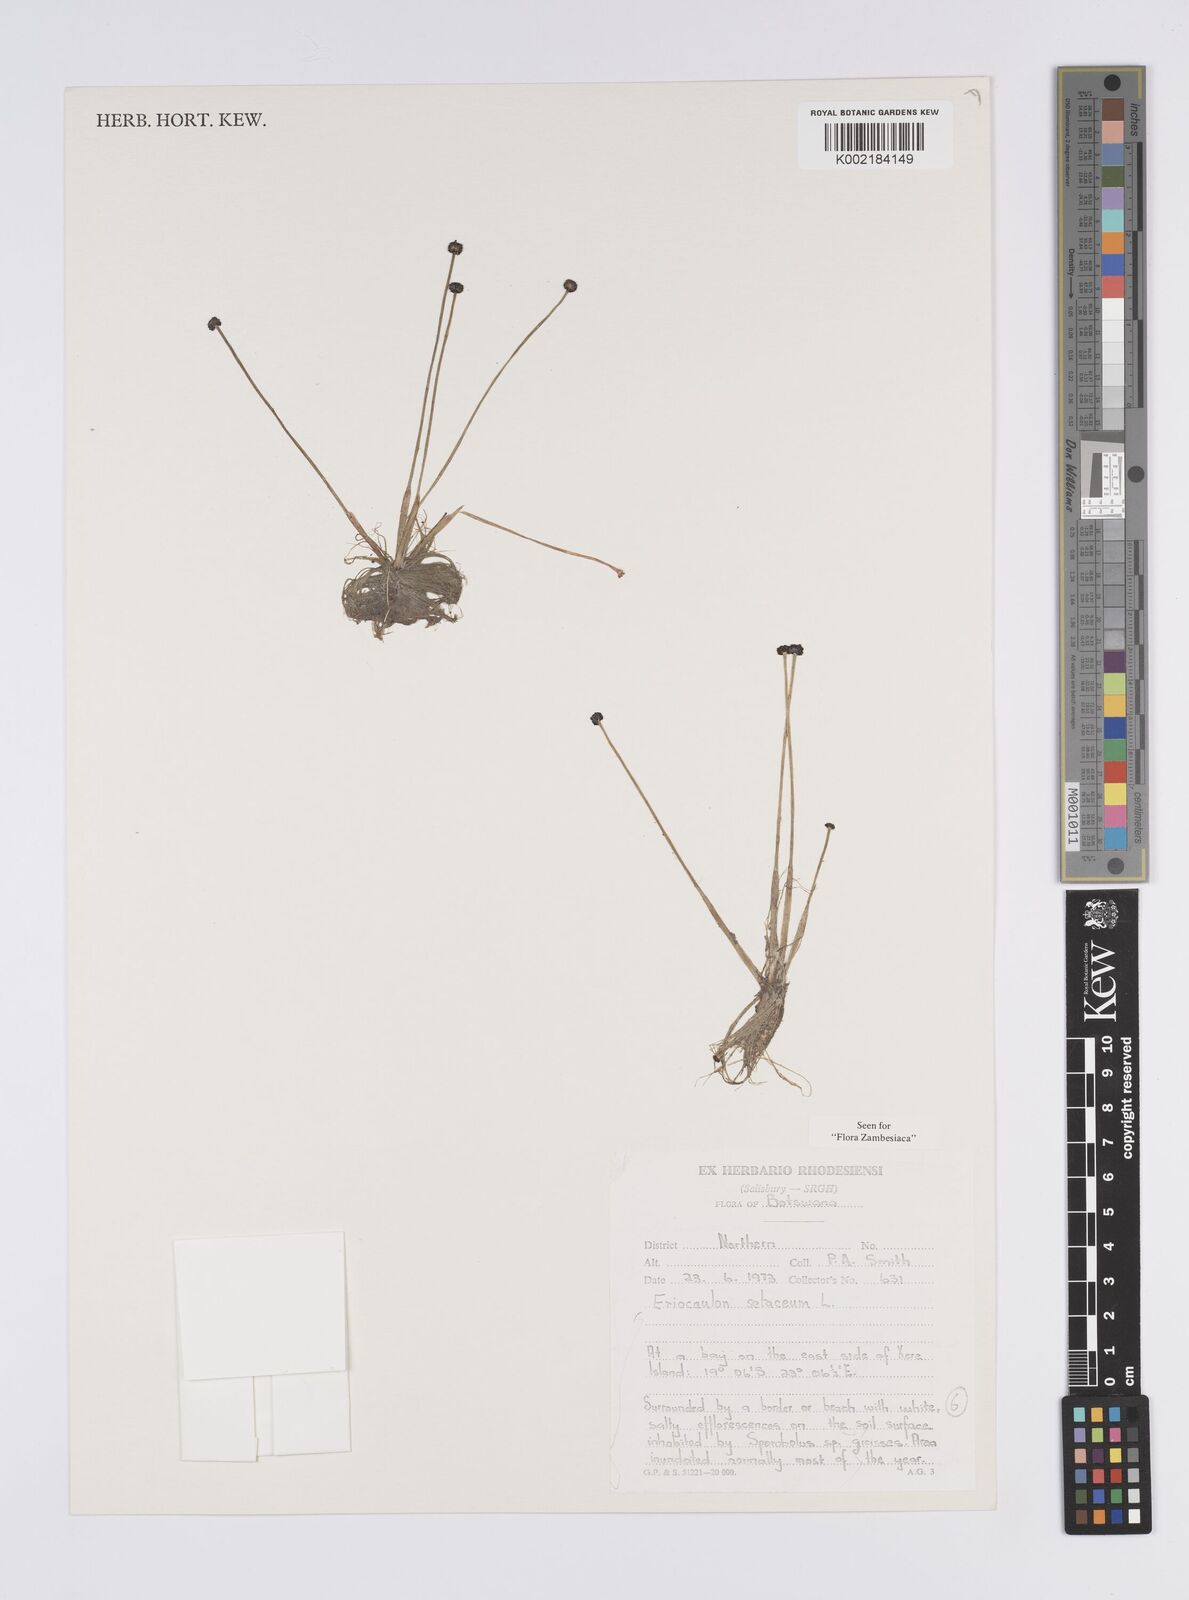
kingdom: Plantae
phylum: Tracheophyta
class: Liliopsida
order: Poales
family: Eriocaulaceae
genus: Eriocaulon
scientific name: Eriocaulon setaceum
